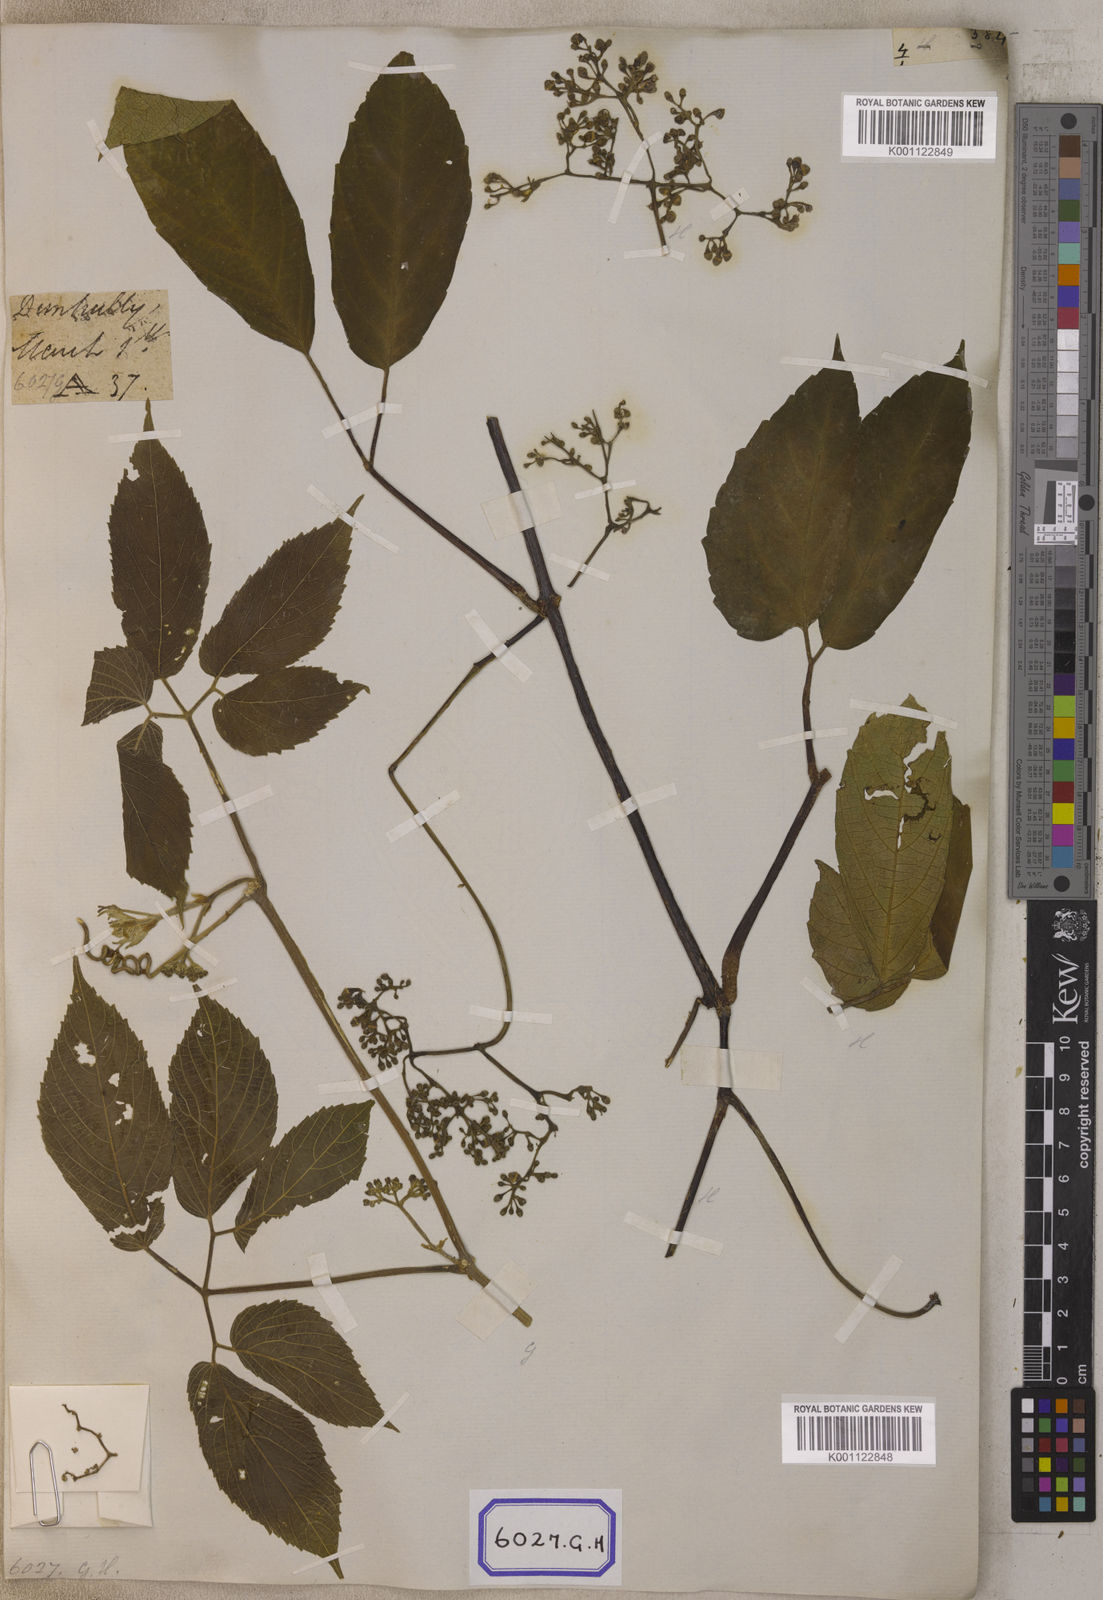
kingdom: Plantae
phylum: Tracheophyta
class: Magnoliopsida
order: Vitales
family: Vitaceae
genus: Cayratia
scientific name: Cayratia pedata
